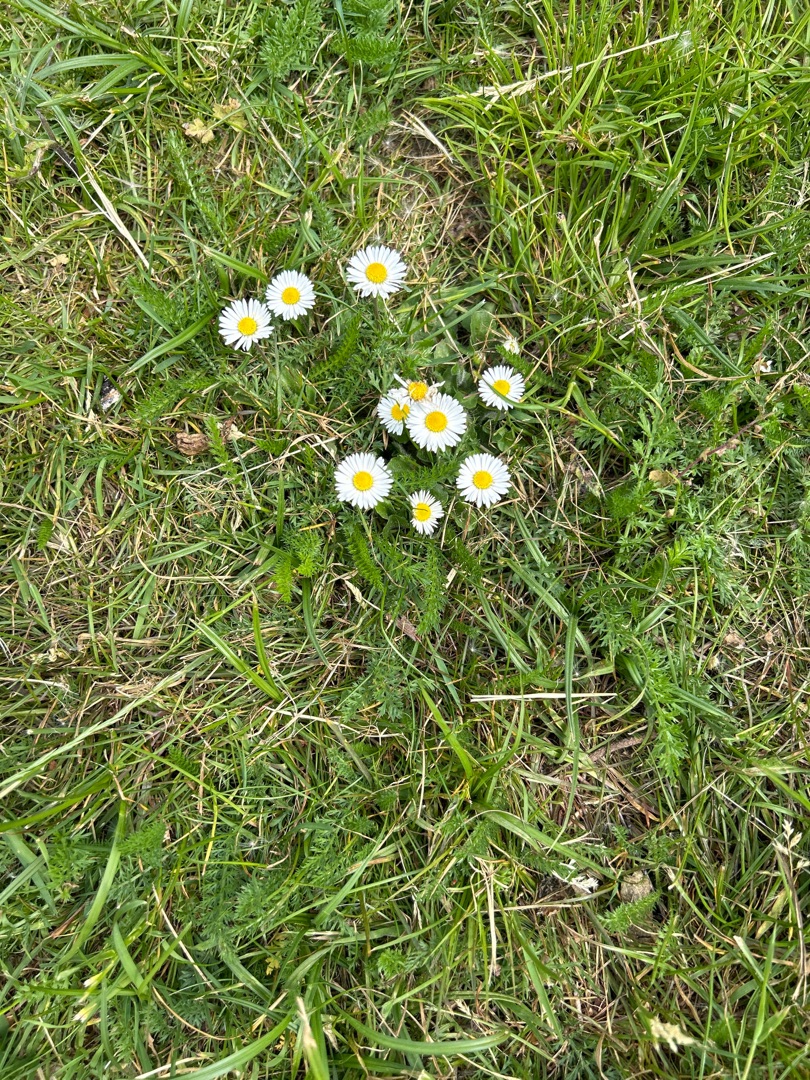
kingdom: Plantae
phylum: Tracheophyta
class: Magnoliopsida
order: Asterales
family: Asteraceae
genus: Bellis
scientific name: Bellis perennis
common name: Tusindfryd
